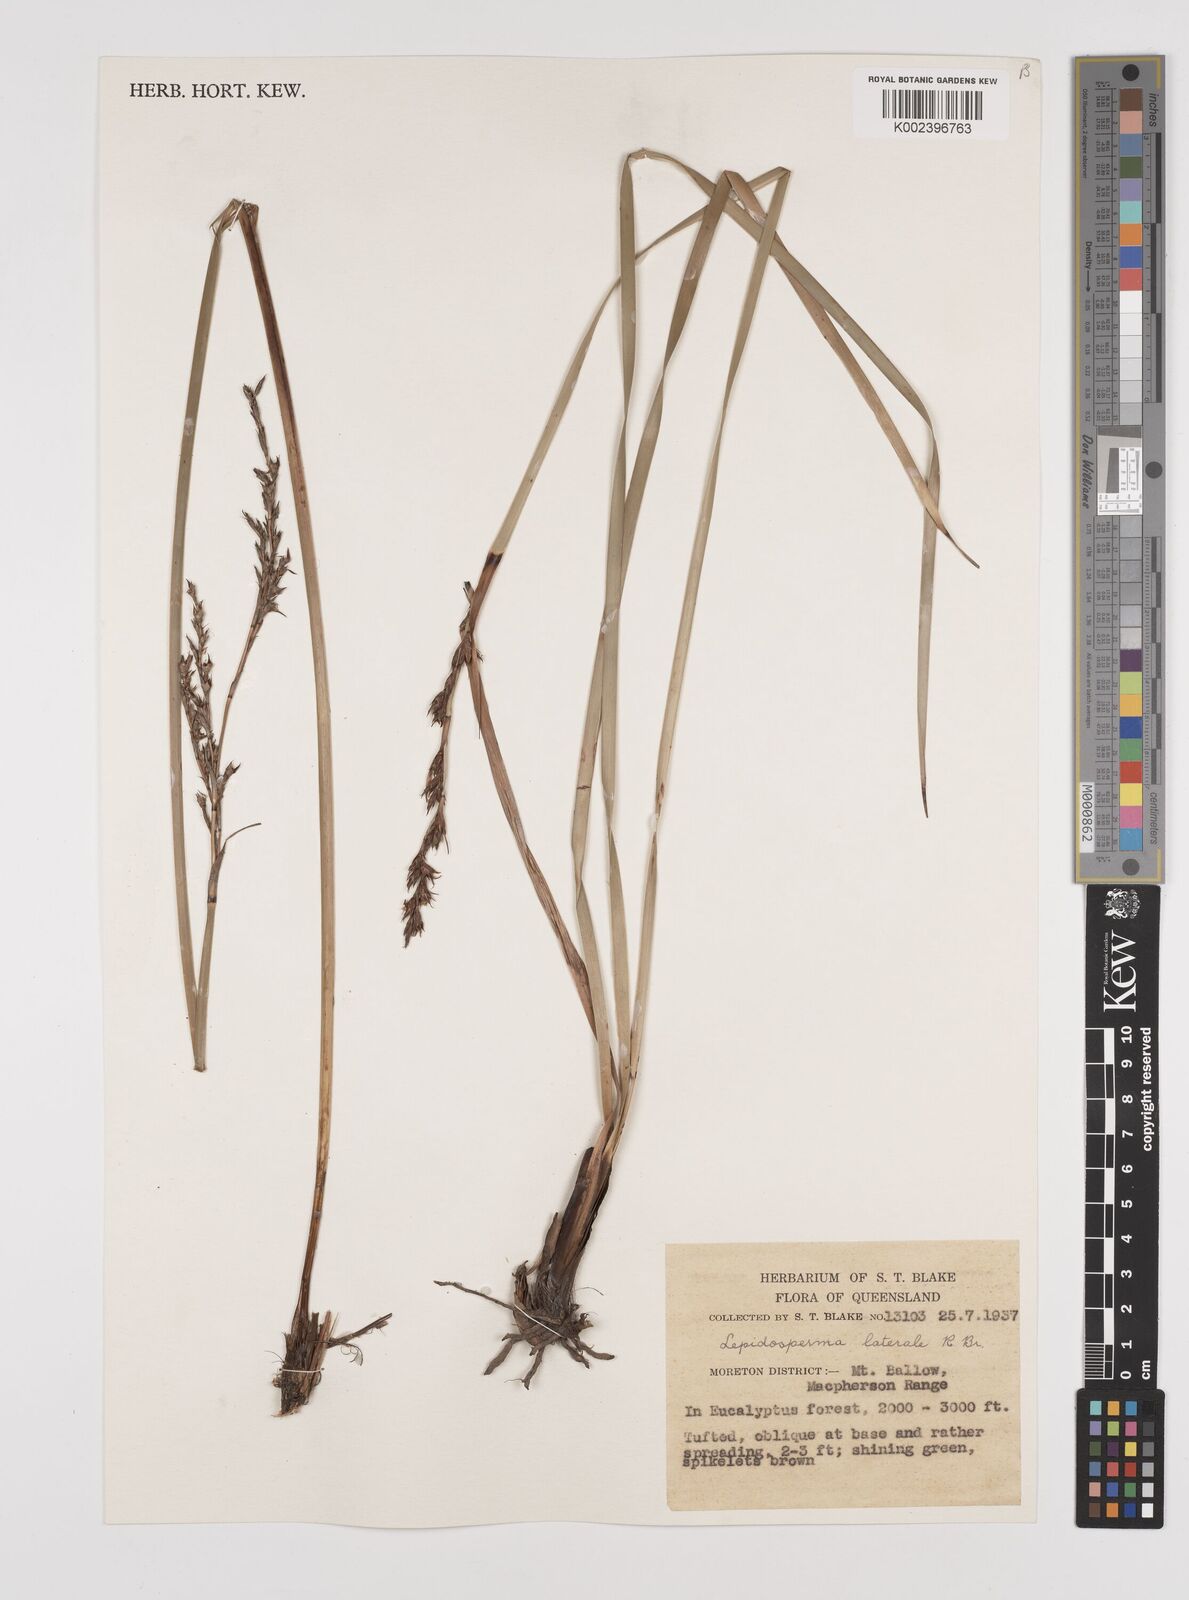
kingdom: Plantae
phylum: Tracheophyta
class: Liliopsida
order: Poales
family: Cyperaceae
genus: Lepidosperma
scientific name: Lepidosperma laterale
